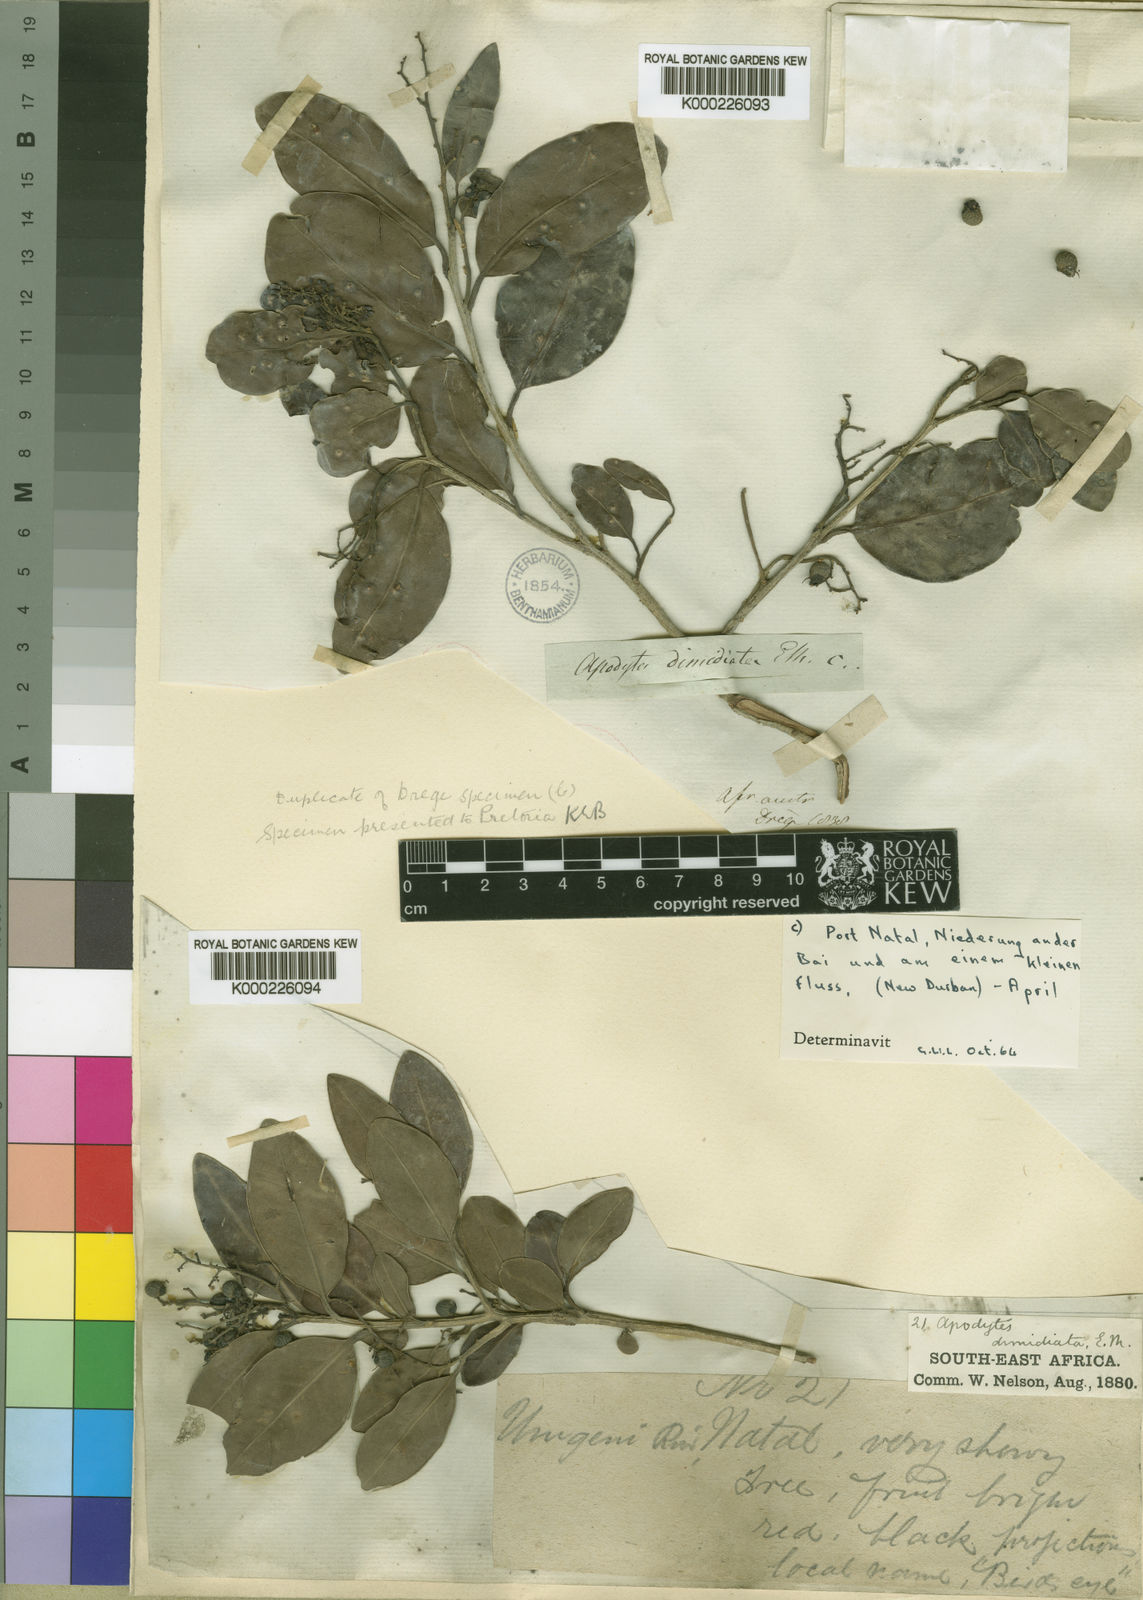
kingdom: Plantae
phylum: Tracheophyta
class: Magnoliopsida
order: Metteniusales
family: Metteniusaceae
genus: Apodytes
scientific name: Apodytes dimidiata
